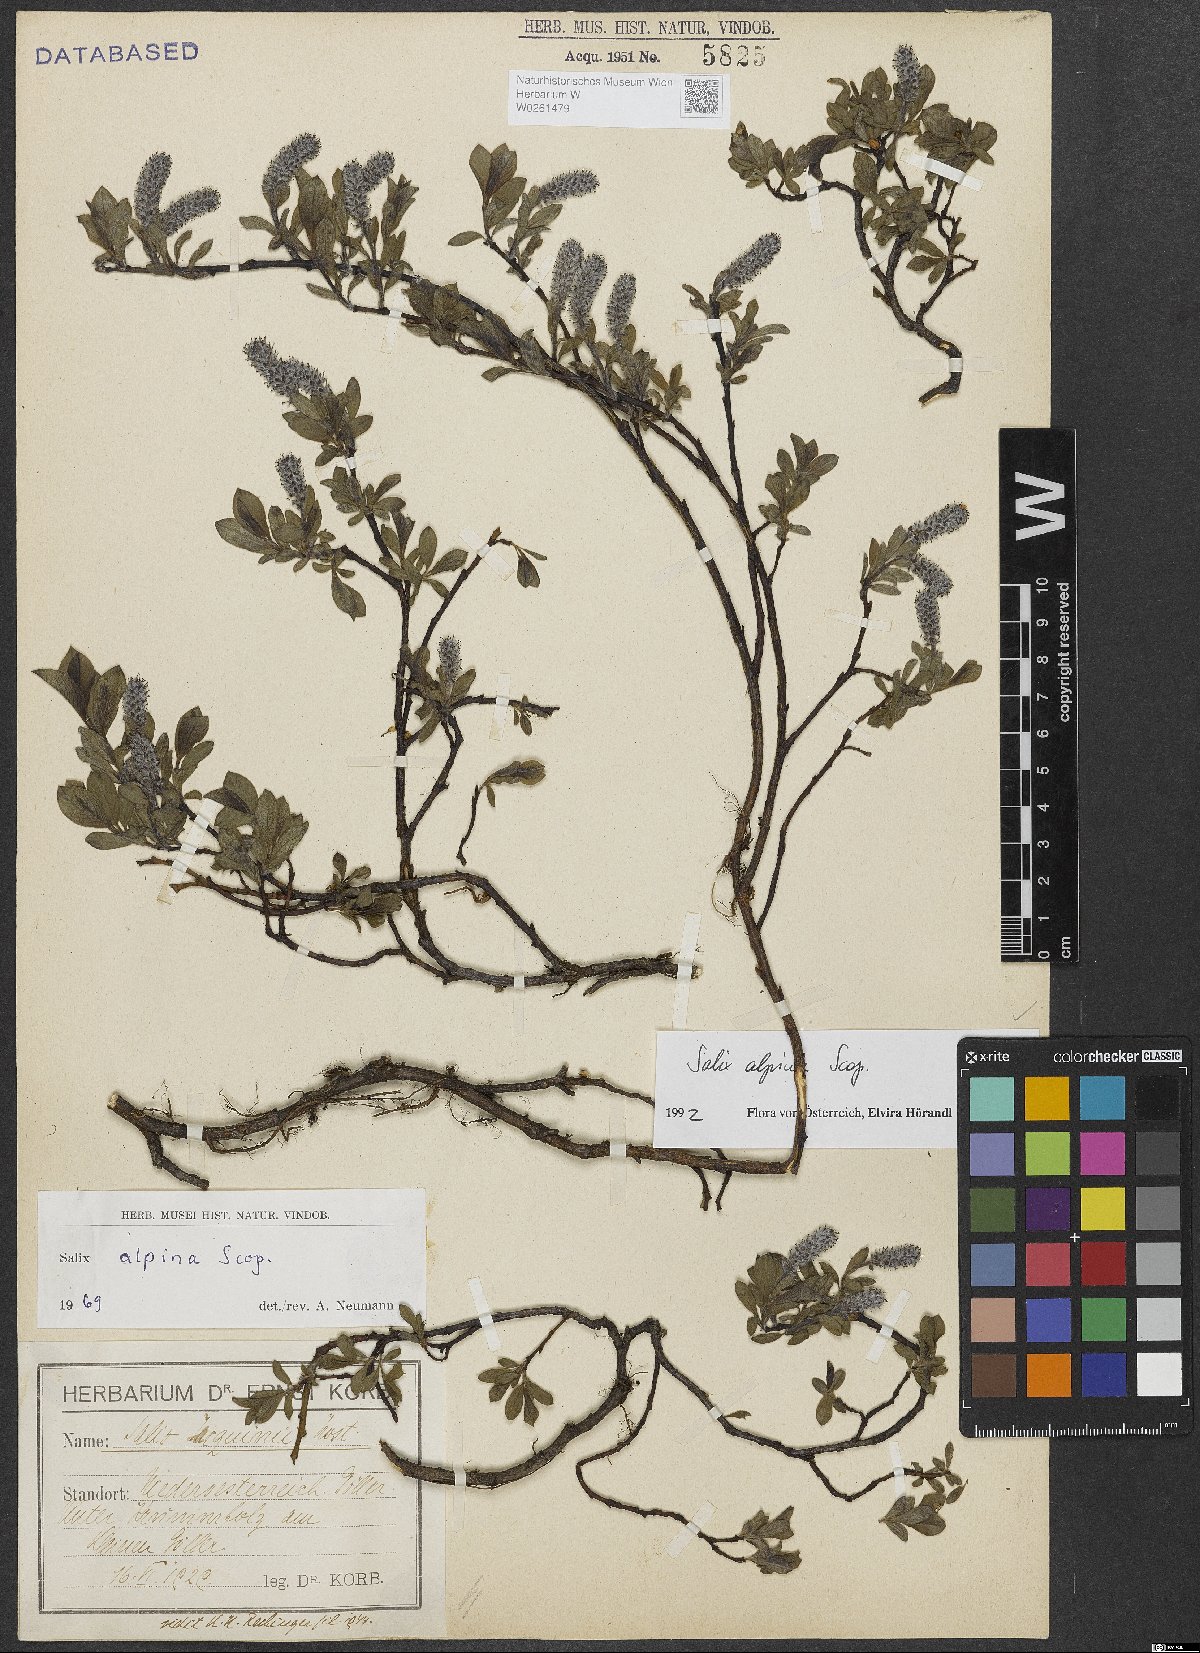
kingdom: Plantae
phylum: Tracheophyta
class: Magnoliopsida
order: Malpighiales
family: Salicaceae
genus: Salix
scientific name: Salix alpina
